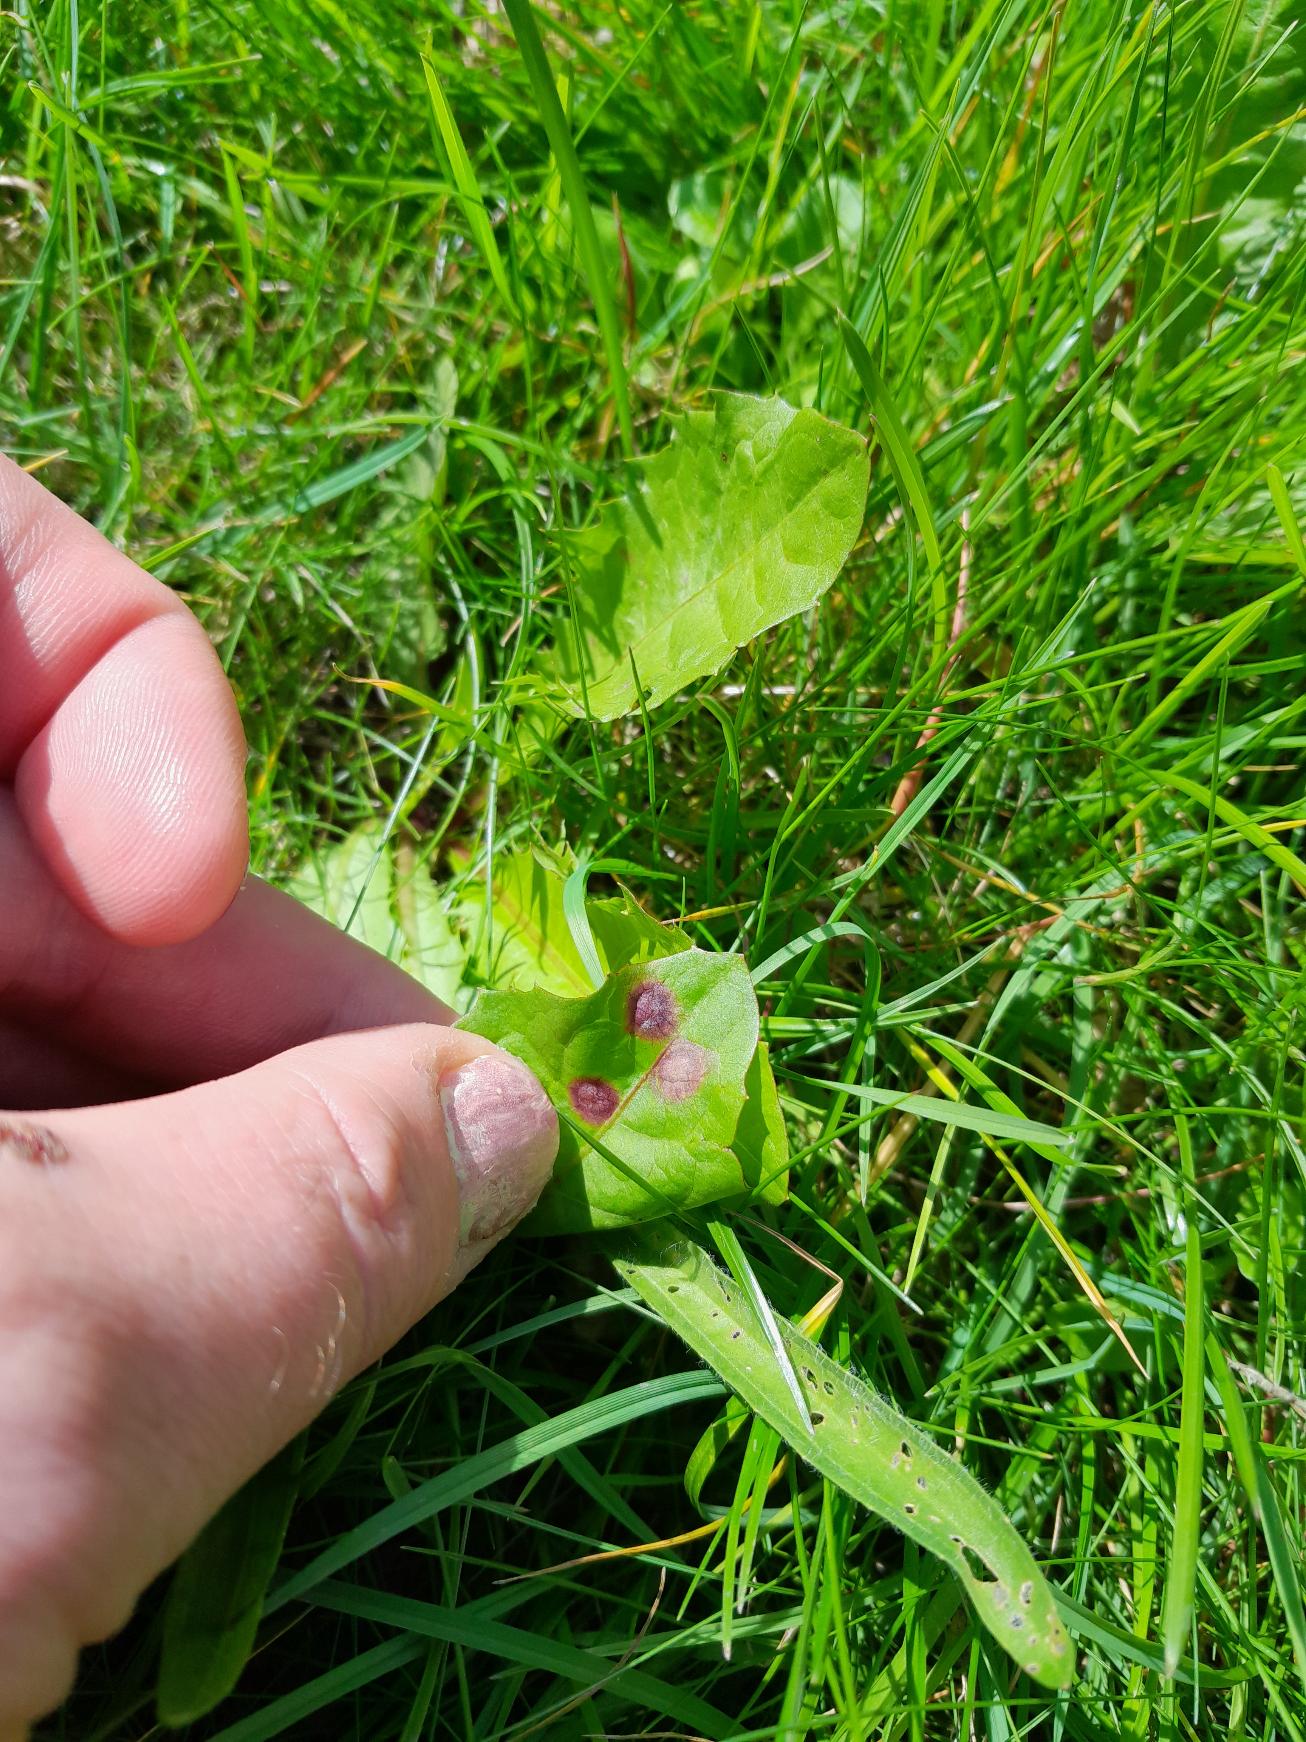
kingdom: Animalia
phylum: Arthropoda
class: Insecta
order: Diptera
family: Cecidomyiidae
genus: Cystiphora
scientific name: Cystiphora taraxaci
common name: Mælkebøttegalmyg
